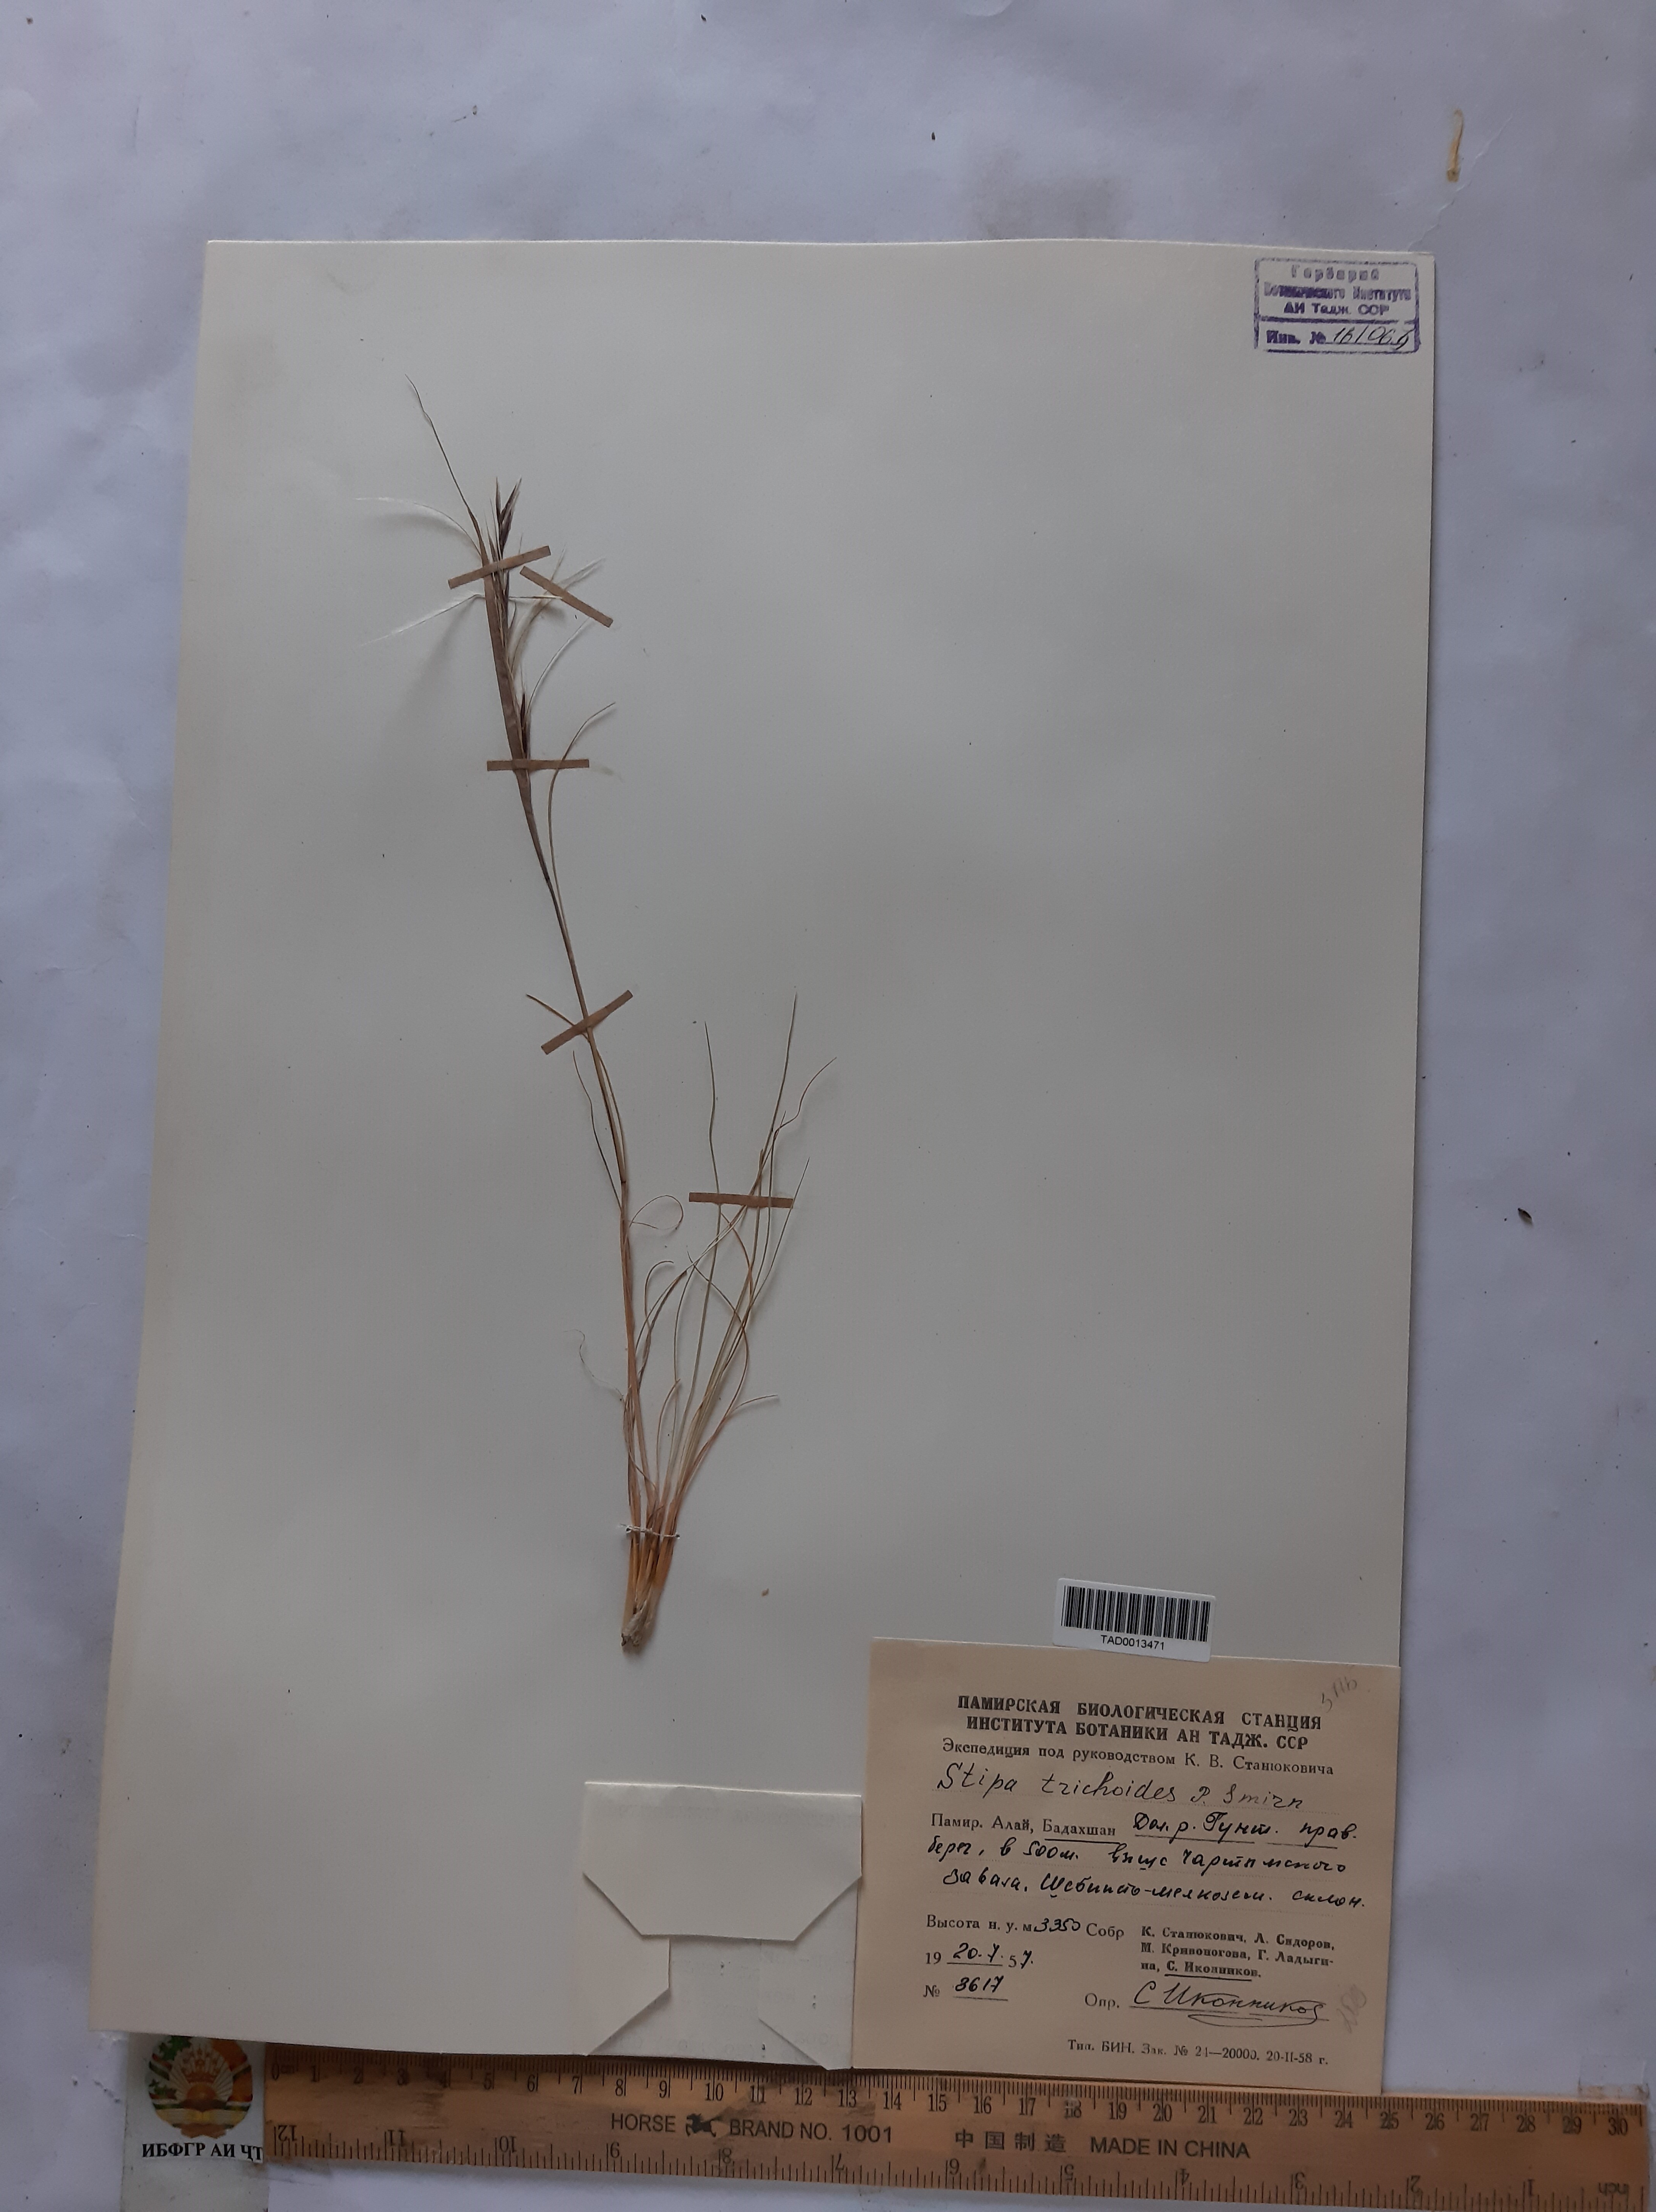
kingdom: Plantae
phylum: Tracheophyta
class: Liliopsida
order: Poales
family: Poaceae
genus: Stipa
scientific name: Stipa trichoides
